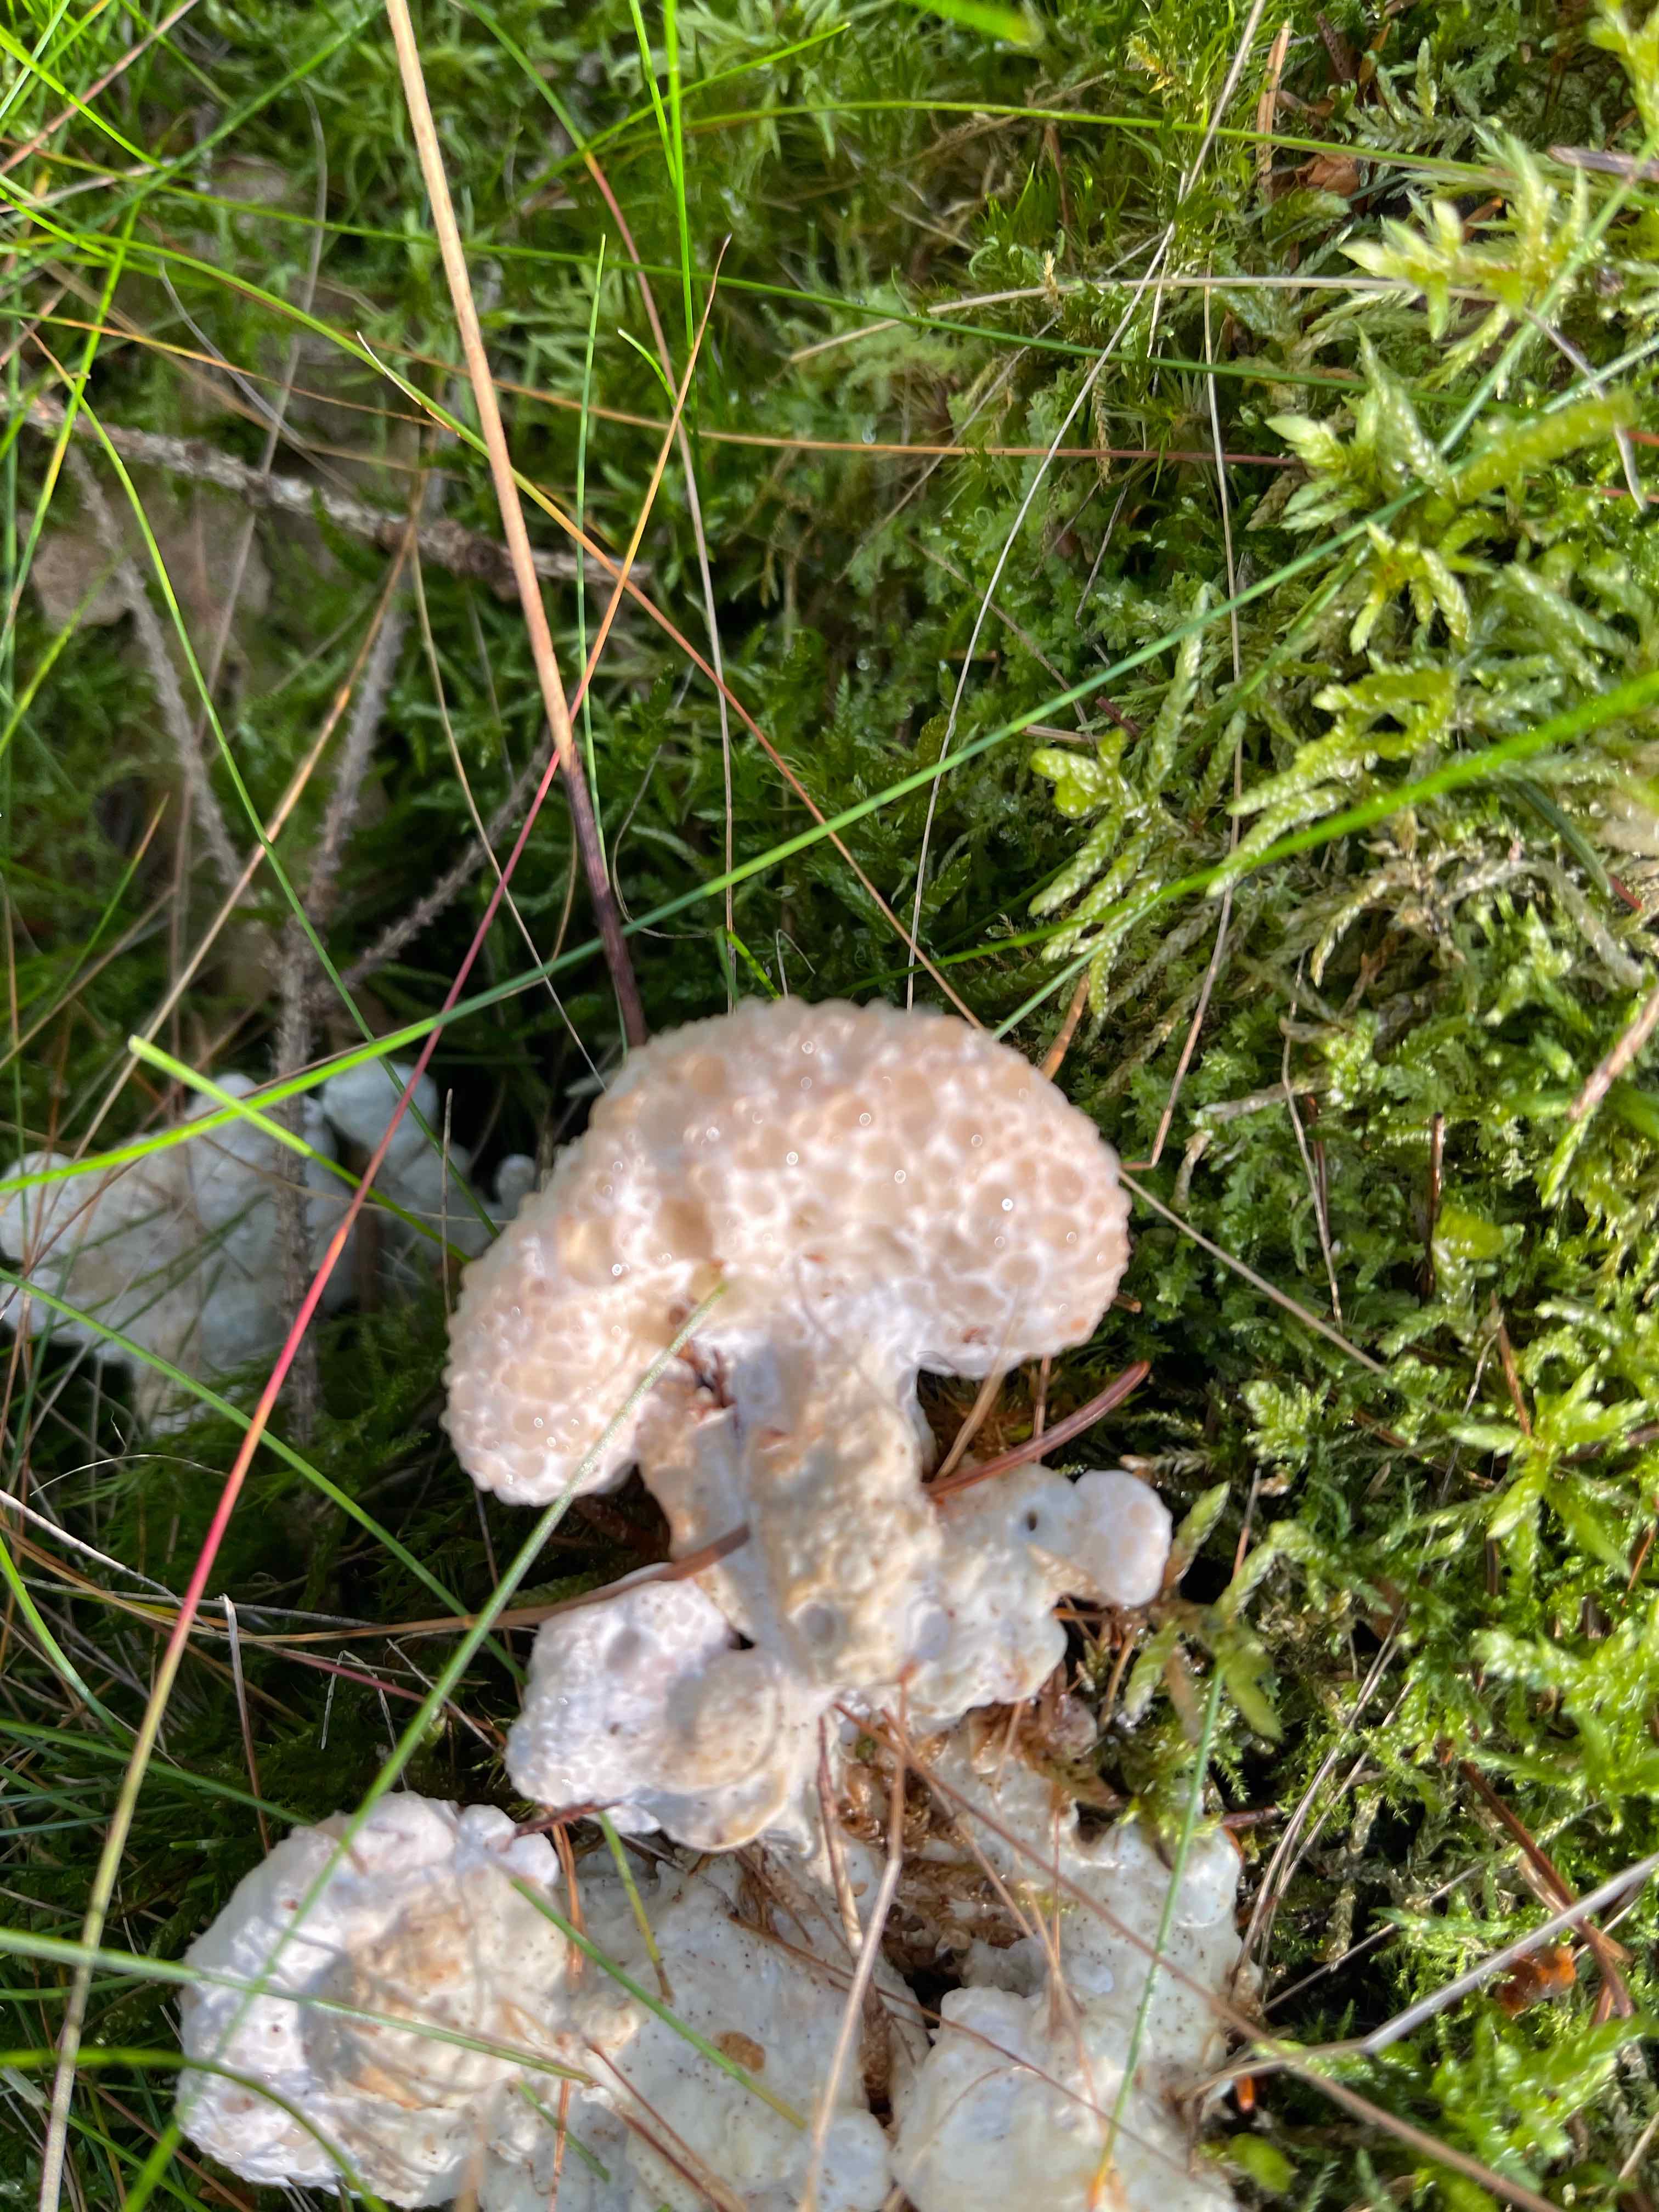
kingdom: Fungi
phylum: Basidiomycota
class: Agaricomycetes
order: Polyporales
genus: Calcipostia
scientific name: Calcipostia guttulata
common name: dråbe-kødporesvamp
